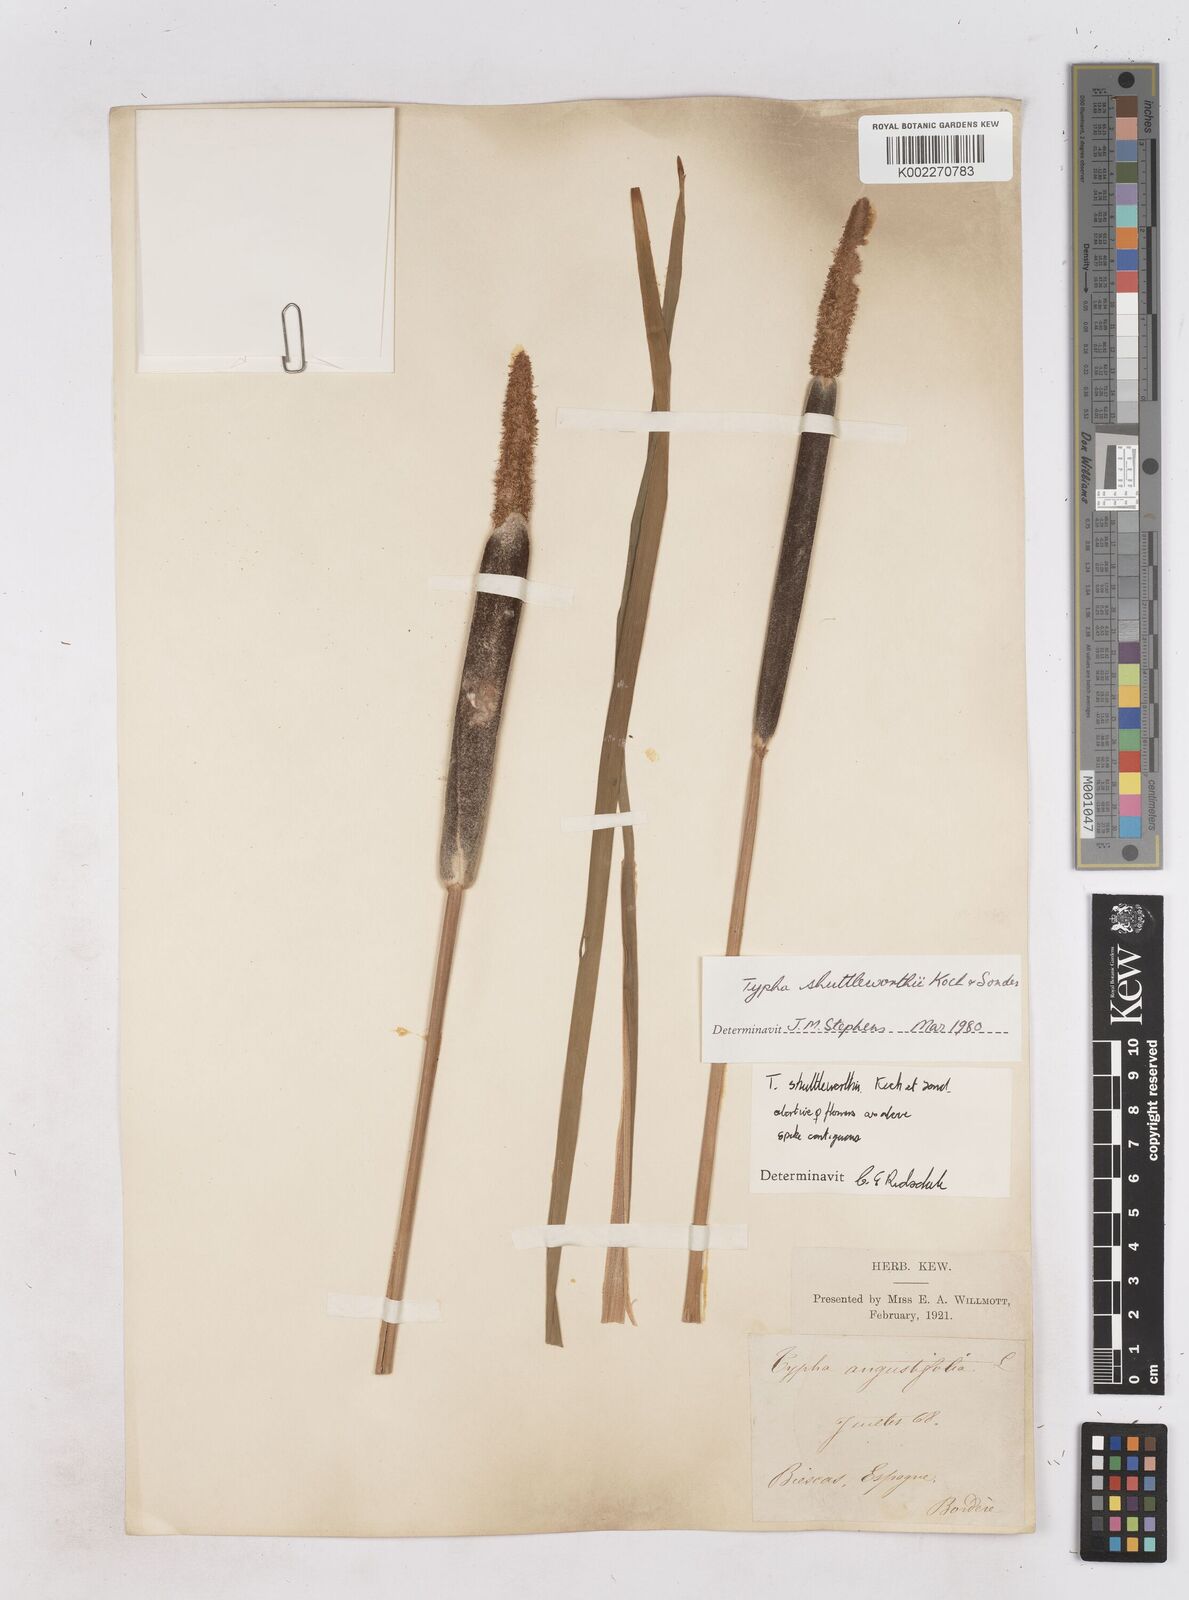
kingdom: Plantae
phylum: Tracheophyta
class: Liliopsida
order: Poales
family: Typhaceae
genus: Typha
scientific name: Typha shuttleworthii
